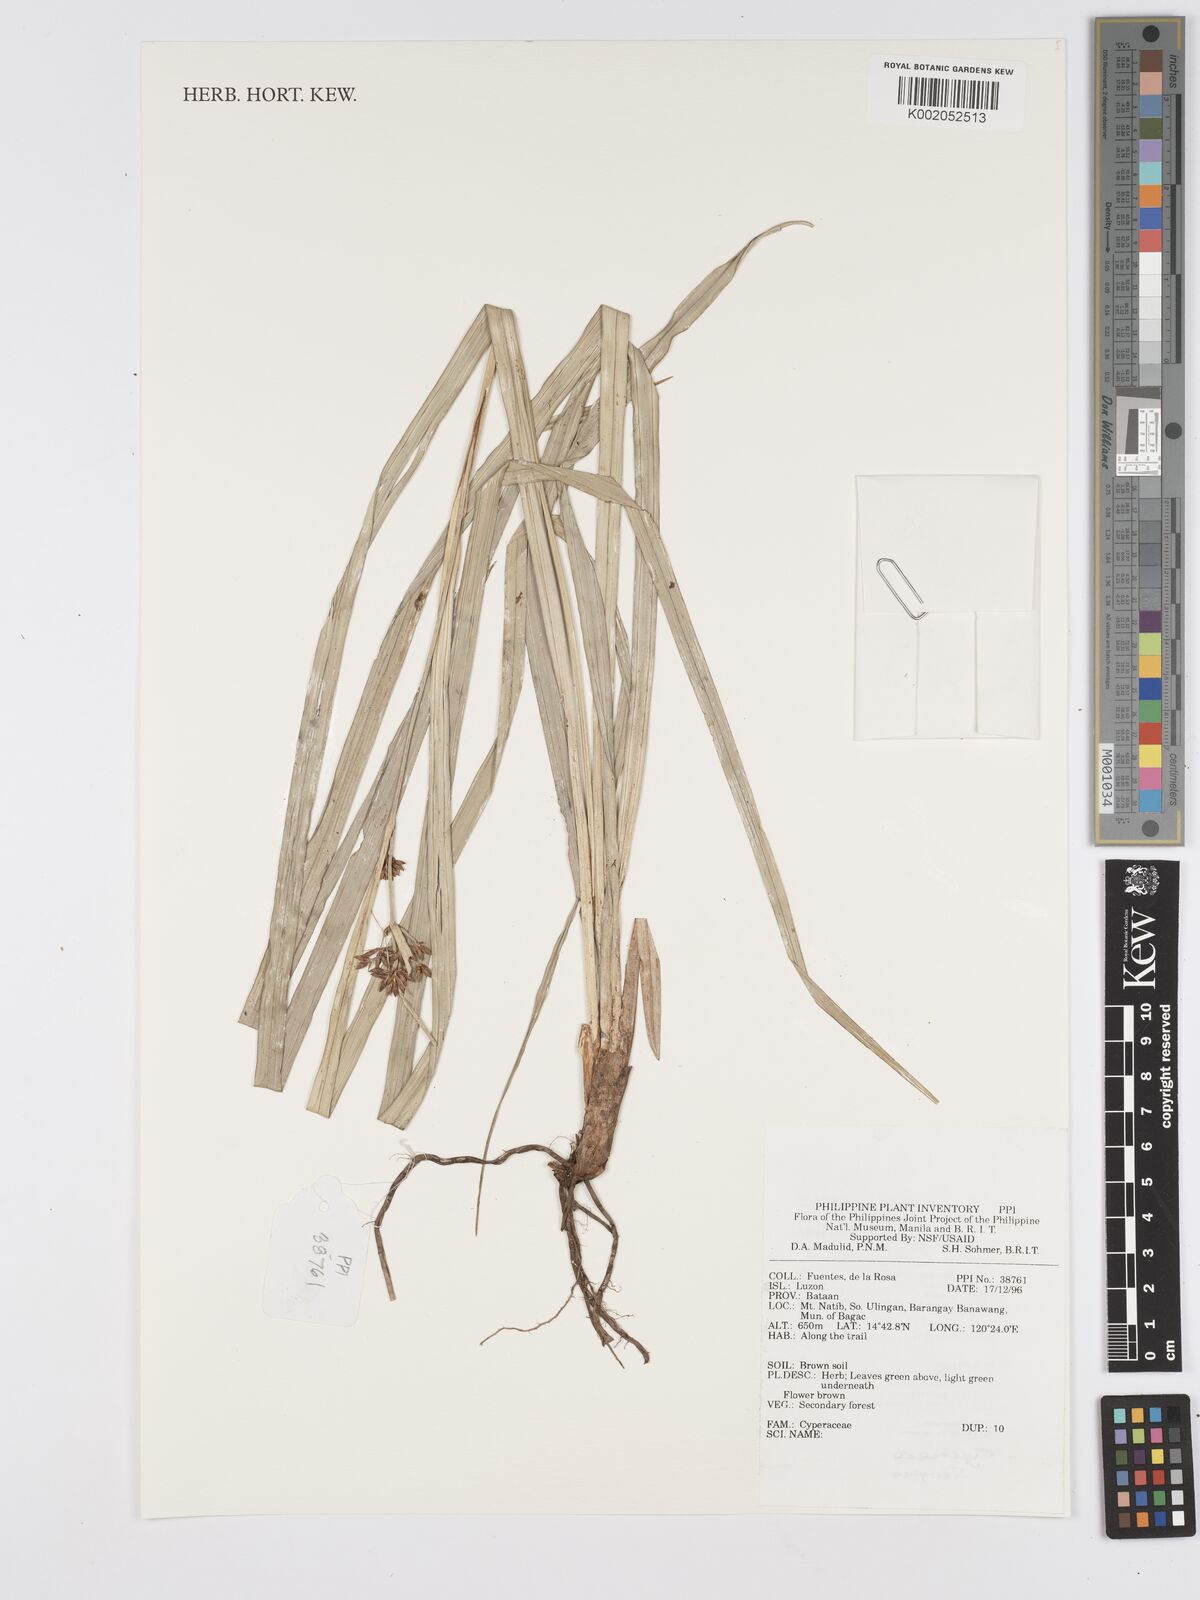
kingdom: Plantae
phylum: Tracheophyta
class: Liliopsida
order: Poales
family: Cyperaceae
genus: Scirpus
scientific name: Scirpus
